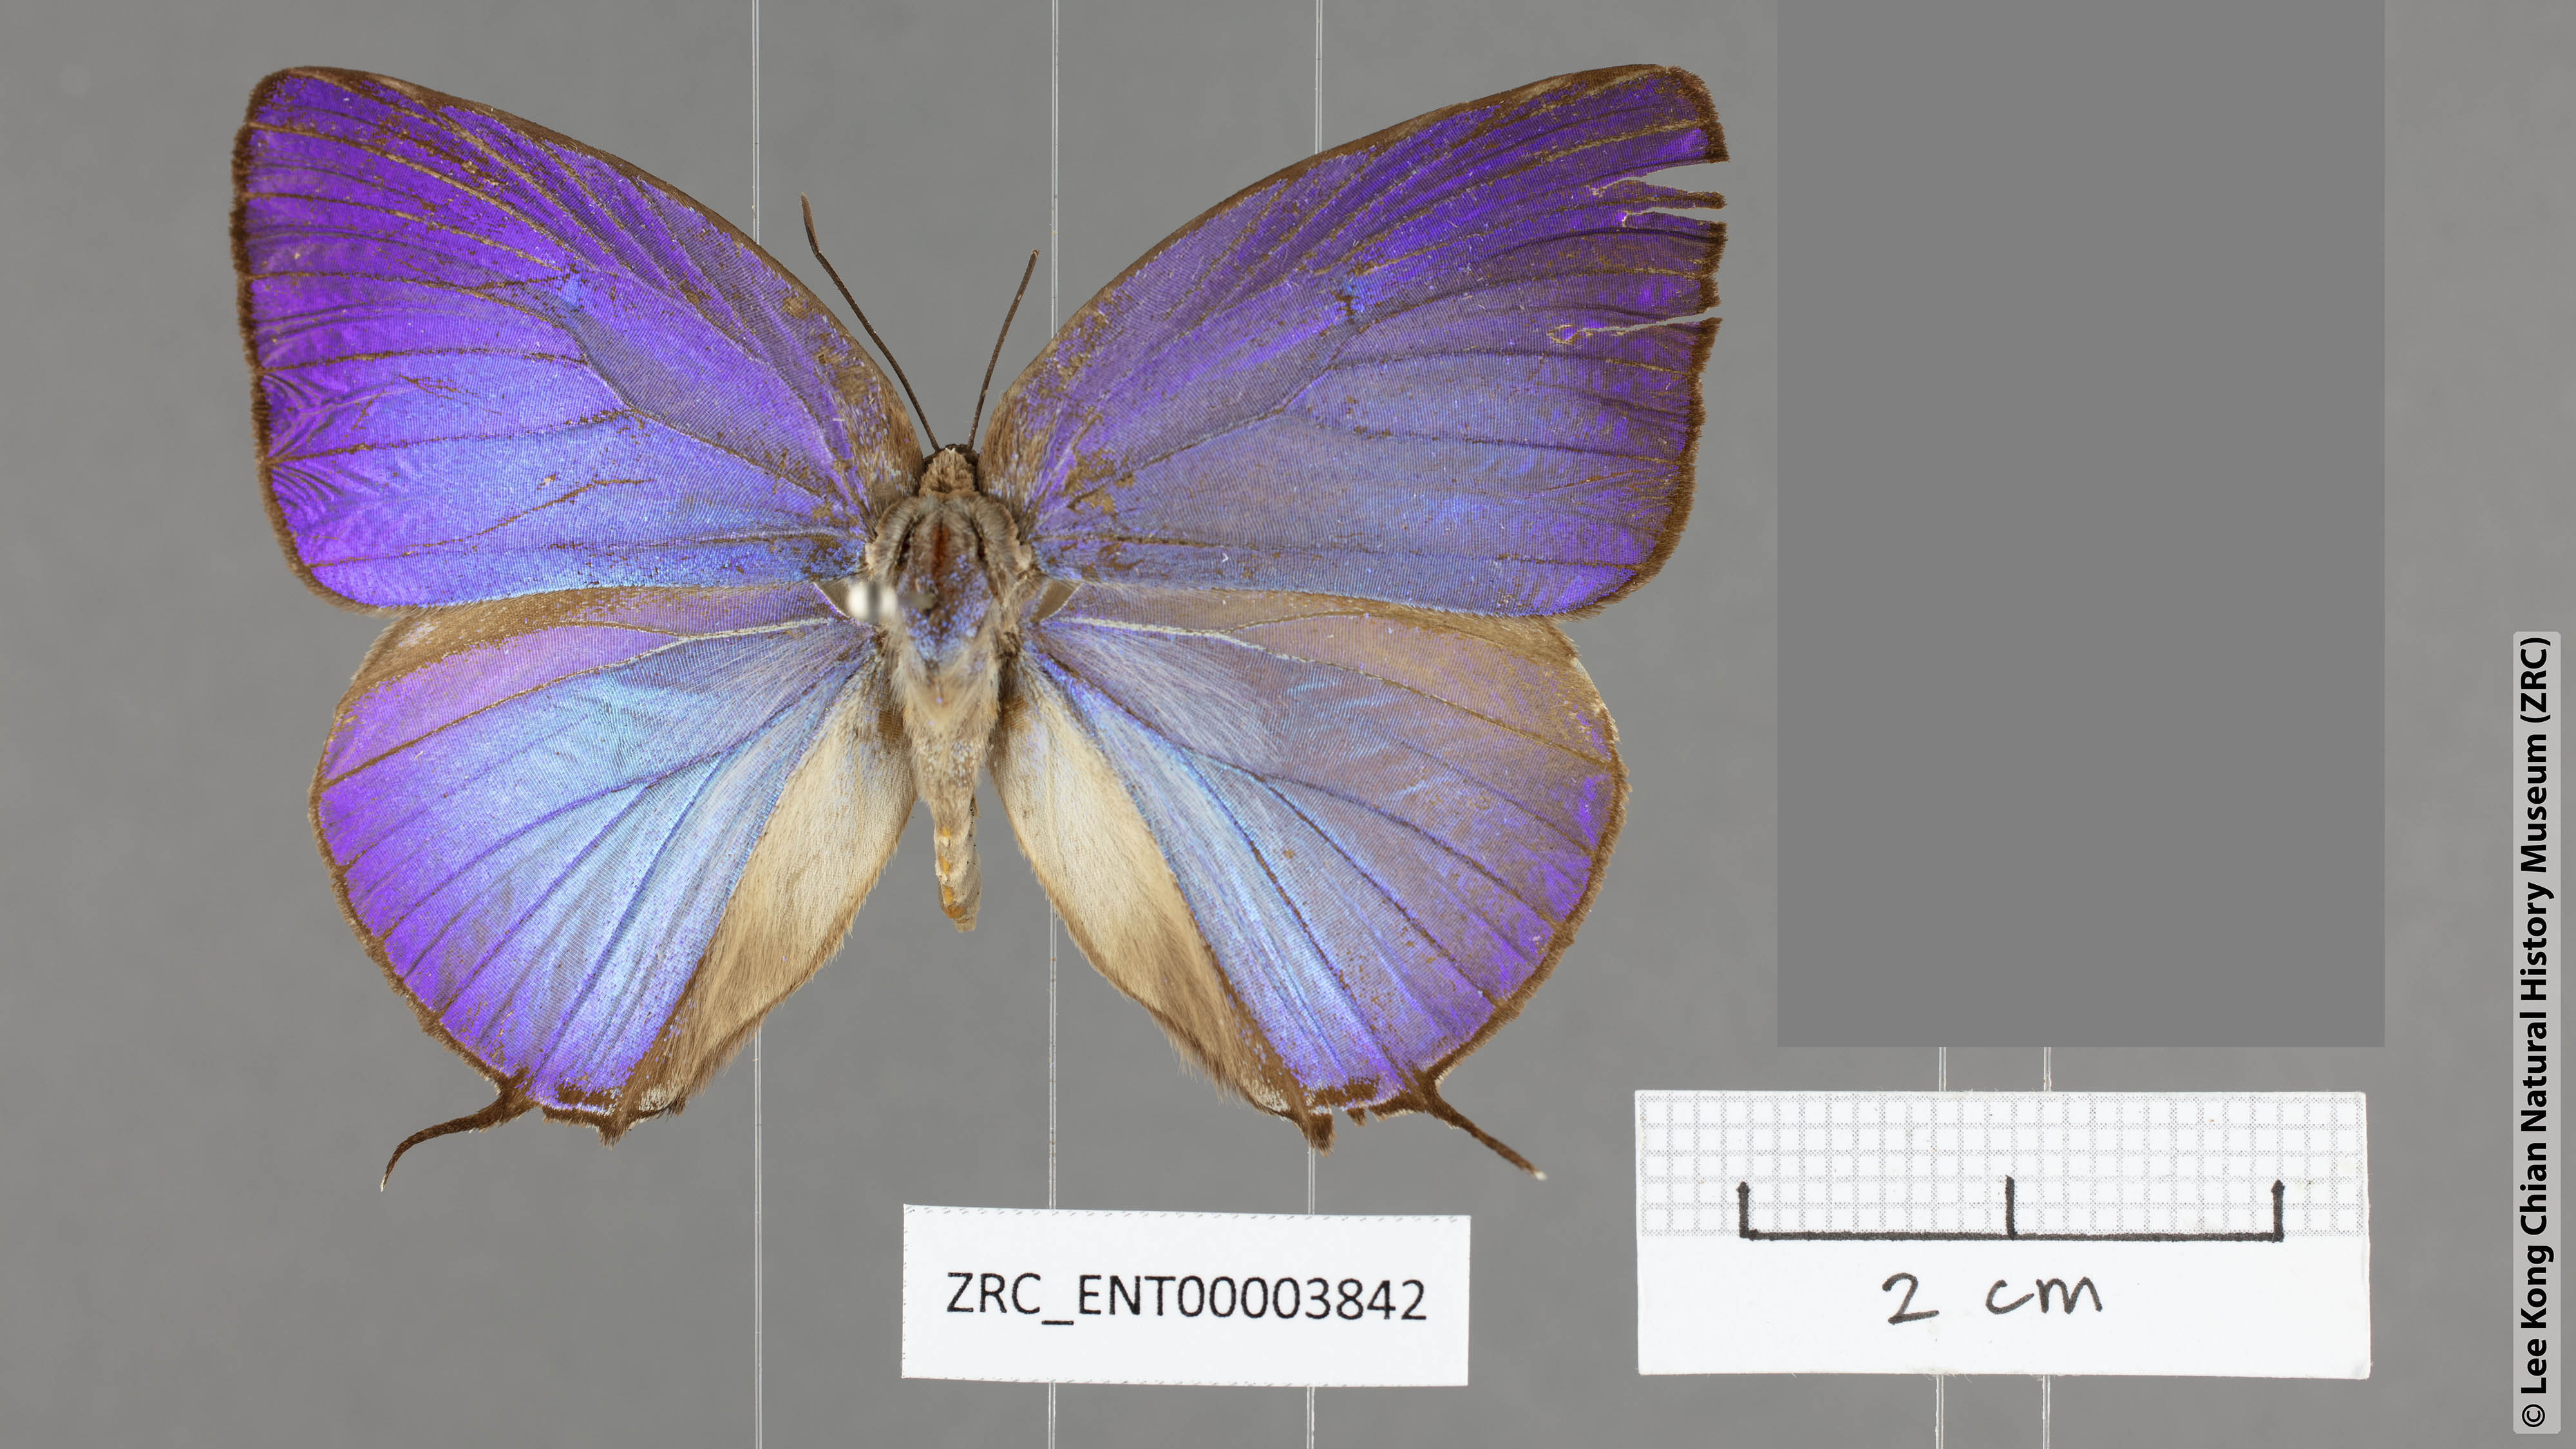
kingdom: Animalia
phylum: Arthropoda
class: Insecta
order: Lepidoptera
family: Lycaenidae
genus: Arhopala
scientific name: Arhopala anarte
